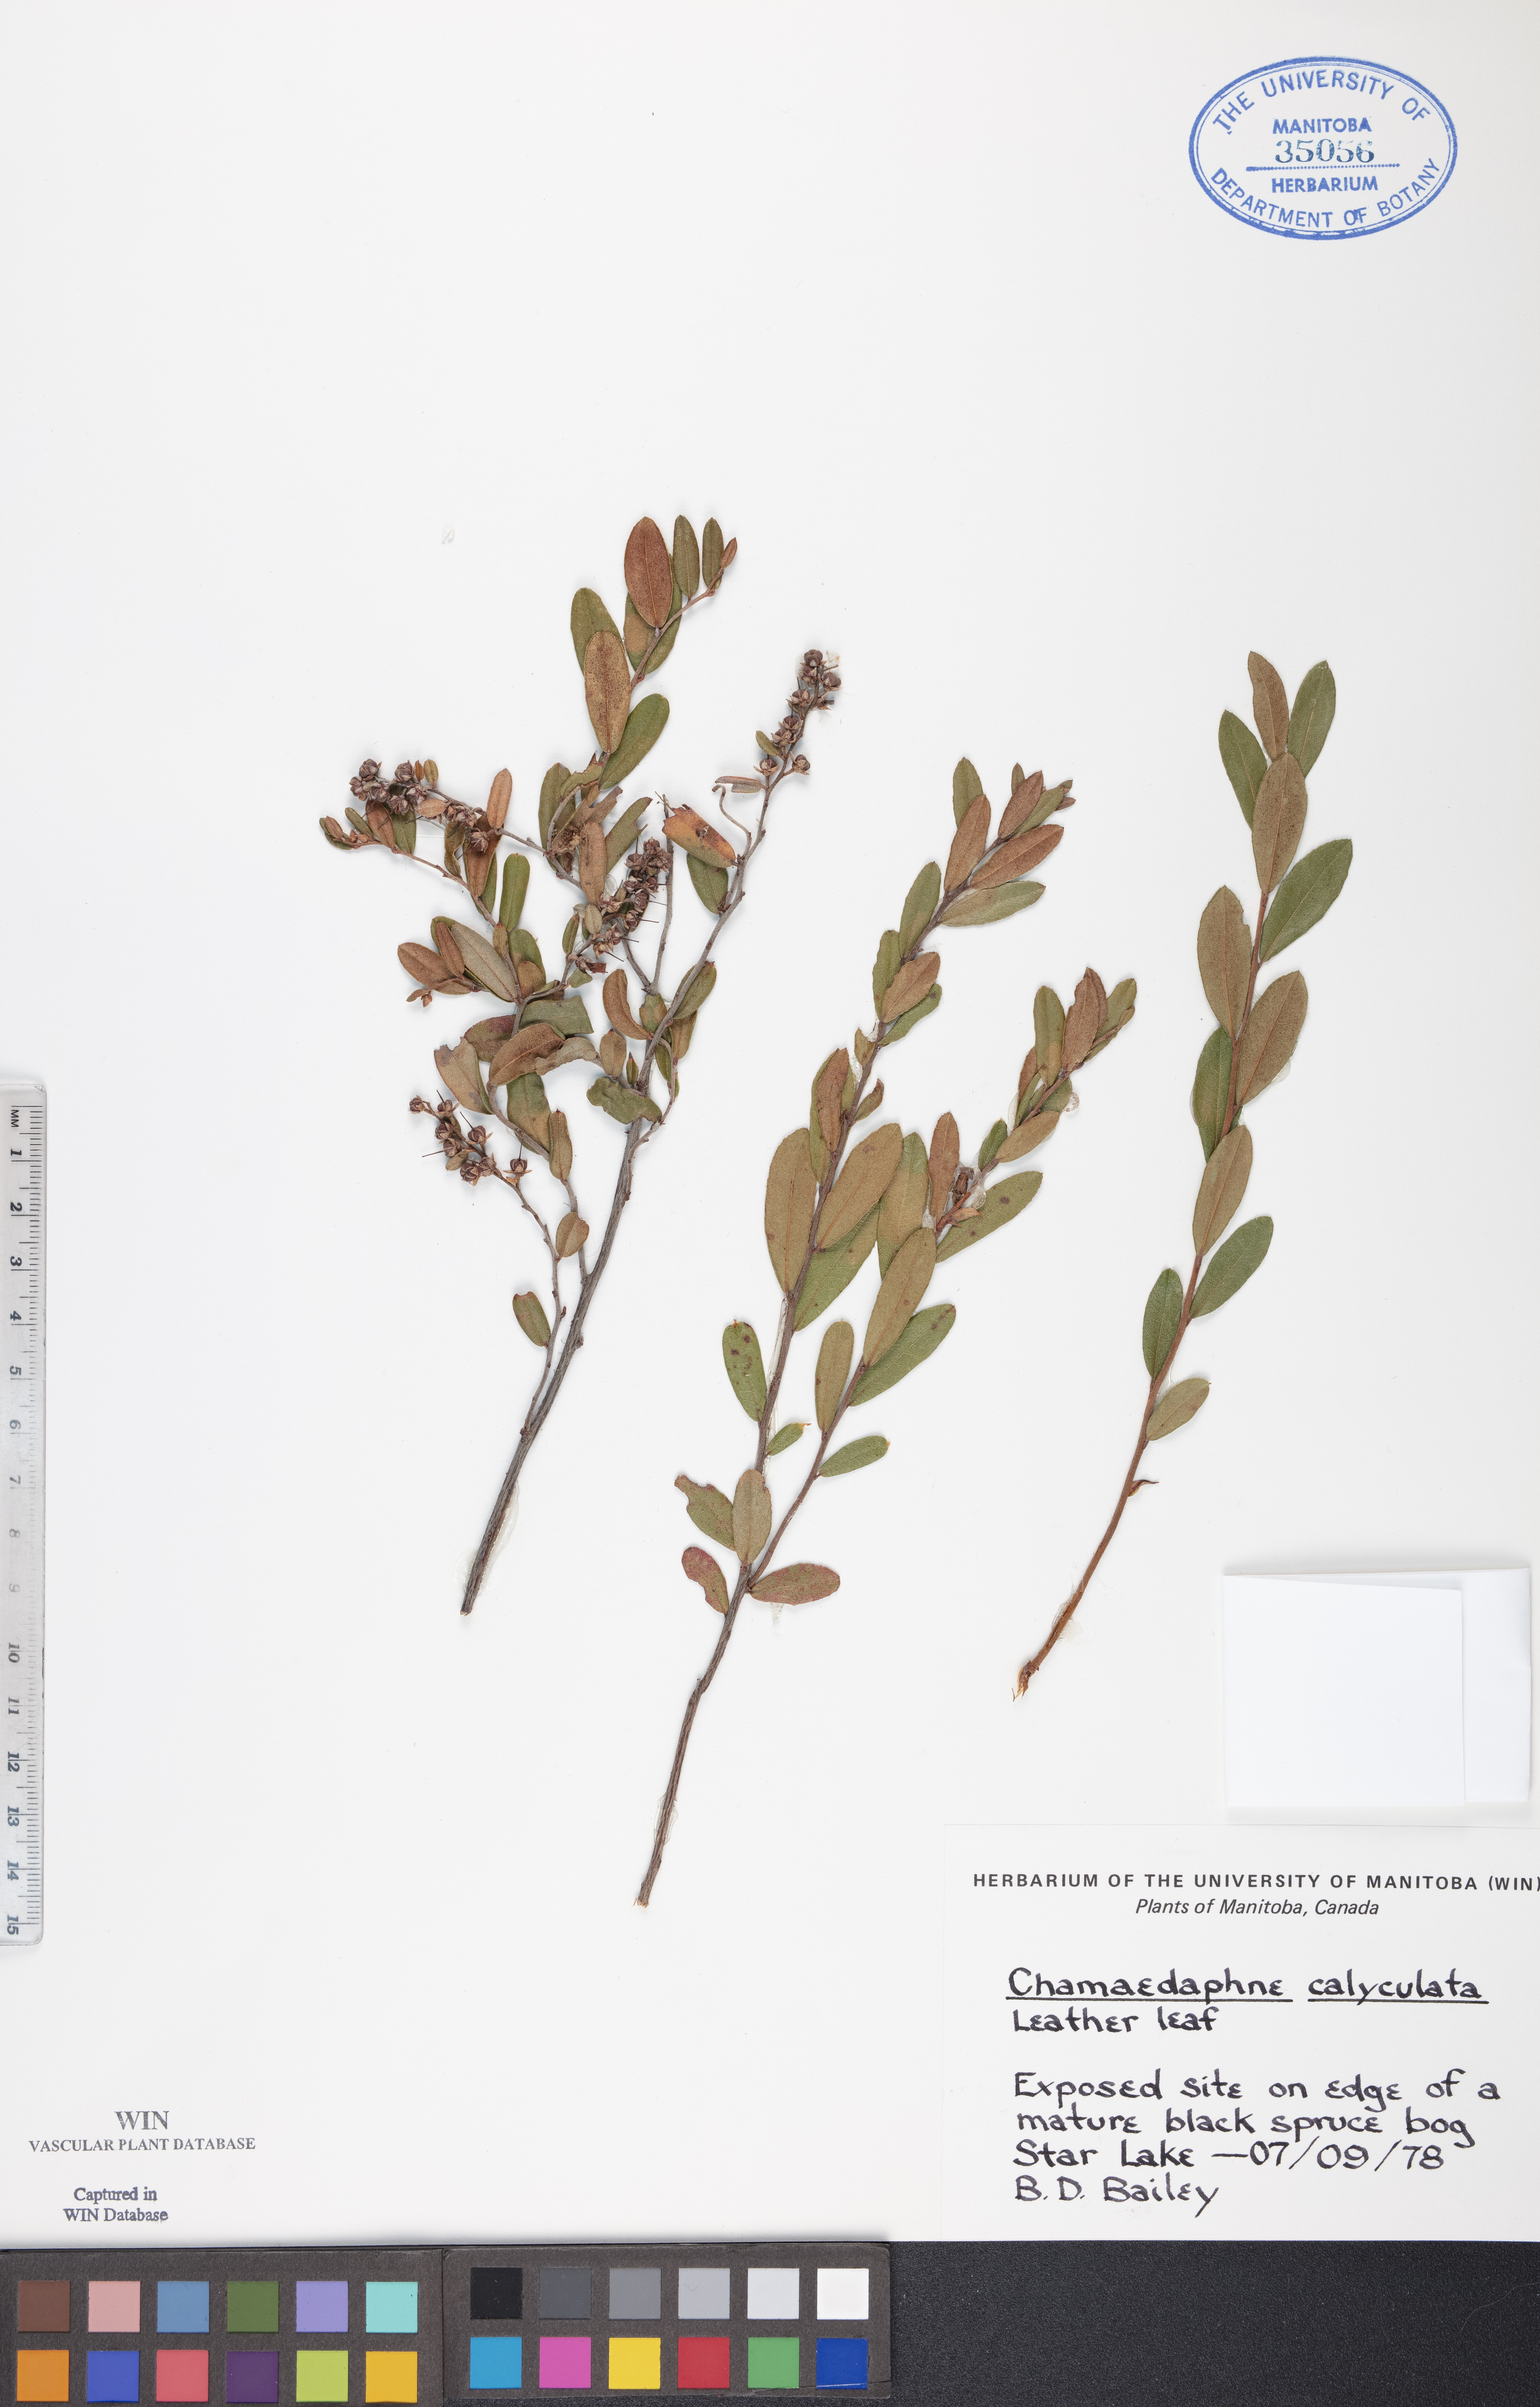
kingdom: Plantae
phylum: Tracheophyta
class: Magnoliopsida
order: Ericales
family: Ericaceae
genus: Chamaedaphne
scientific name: Chamaedaphne calyculata
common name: Leatherleaf
